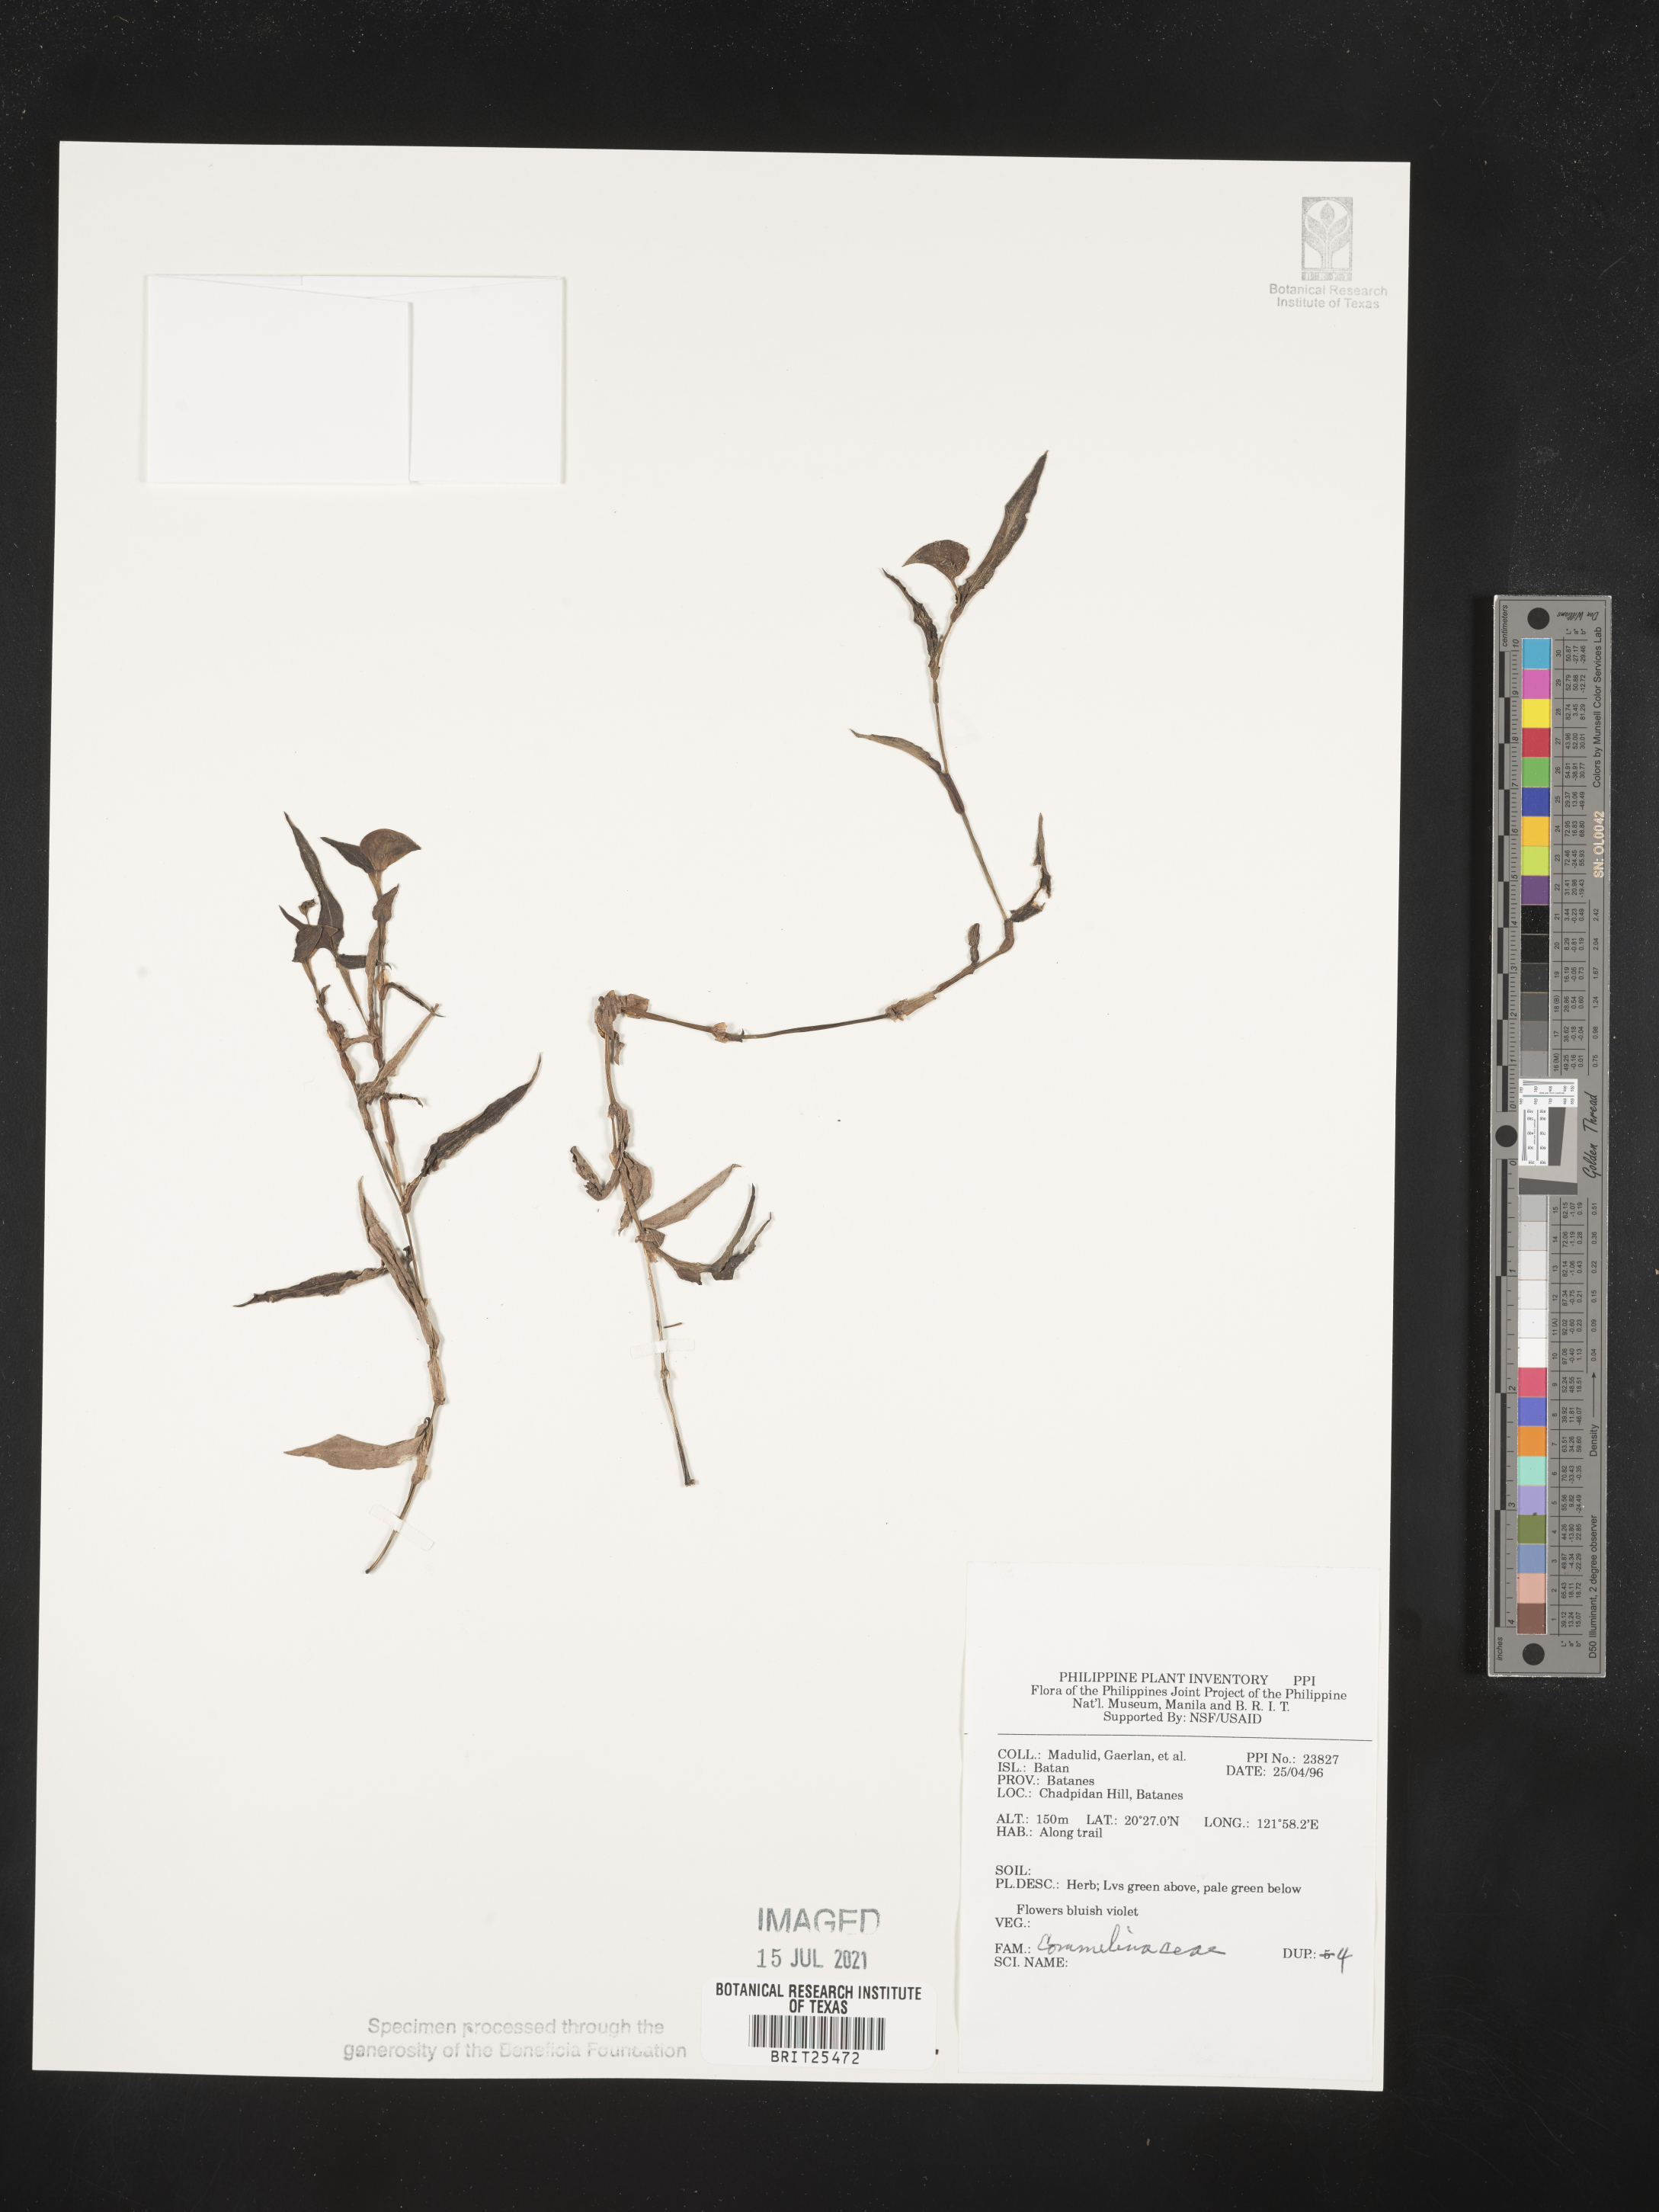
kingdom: Plantae
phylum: Tracheophyta
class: Liliopsida
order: Commelinales
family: Commelinaceae
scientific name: Commelinaceae
